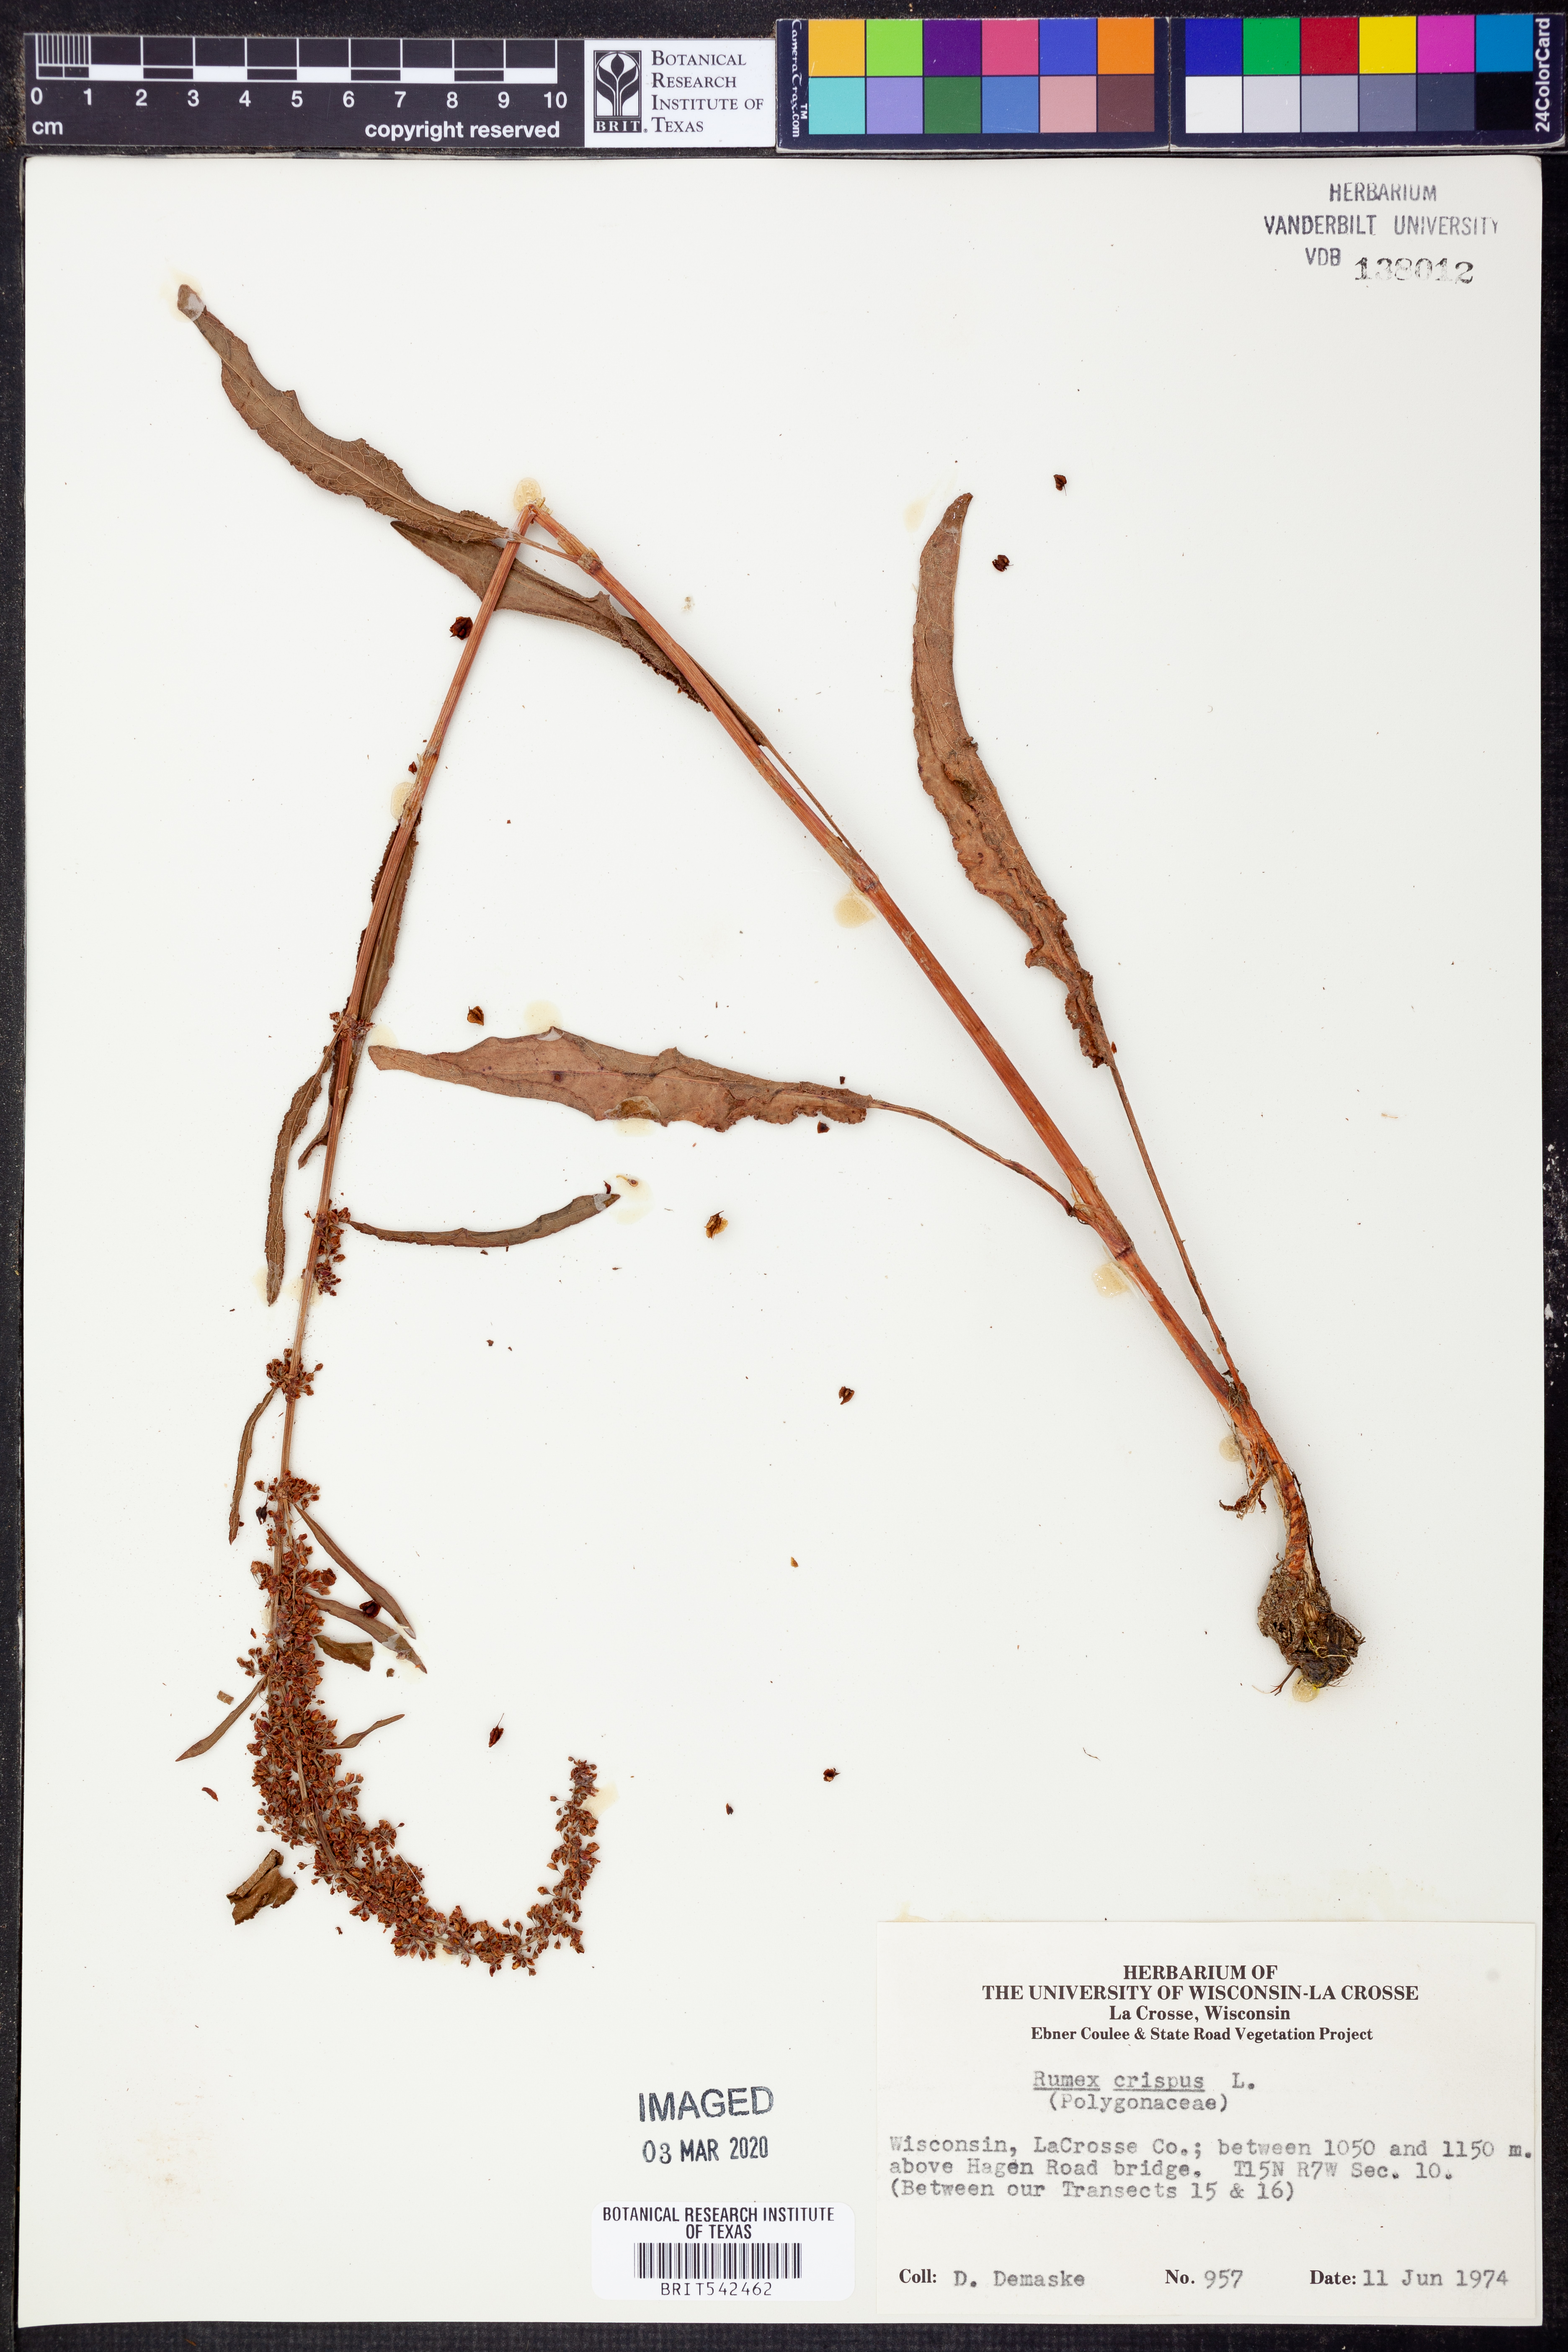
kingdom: Plantae
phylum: Tracheophyta
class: Magnoliopsida
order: Caryophyllales
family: Polygonaceae
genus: Rumex
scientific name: Rumex crispus
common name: Curled dock
